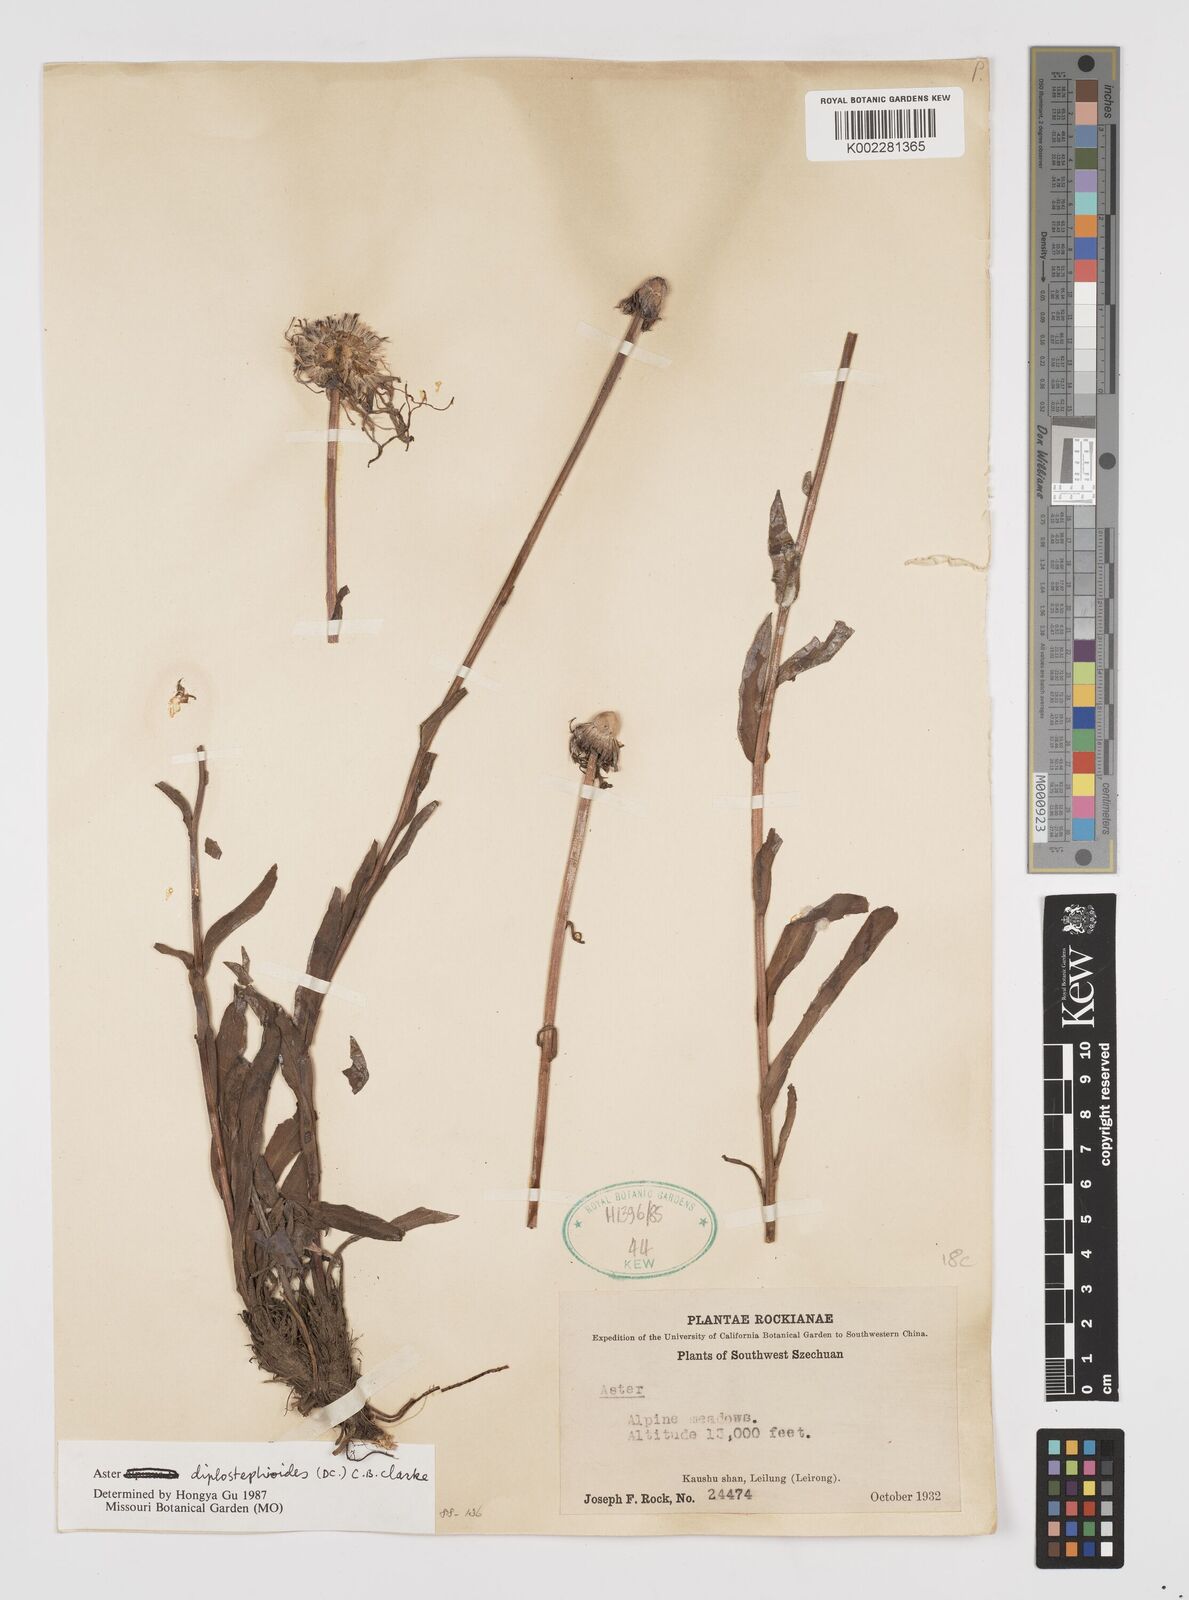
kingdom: Plantae
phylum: Tracheophyta
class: Magnoliopsida
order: Asterales
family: Asteraceae
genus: Tibetiodes
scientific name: Tibetiodes diplostephioides
